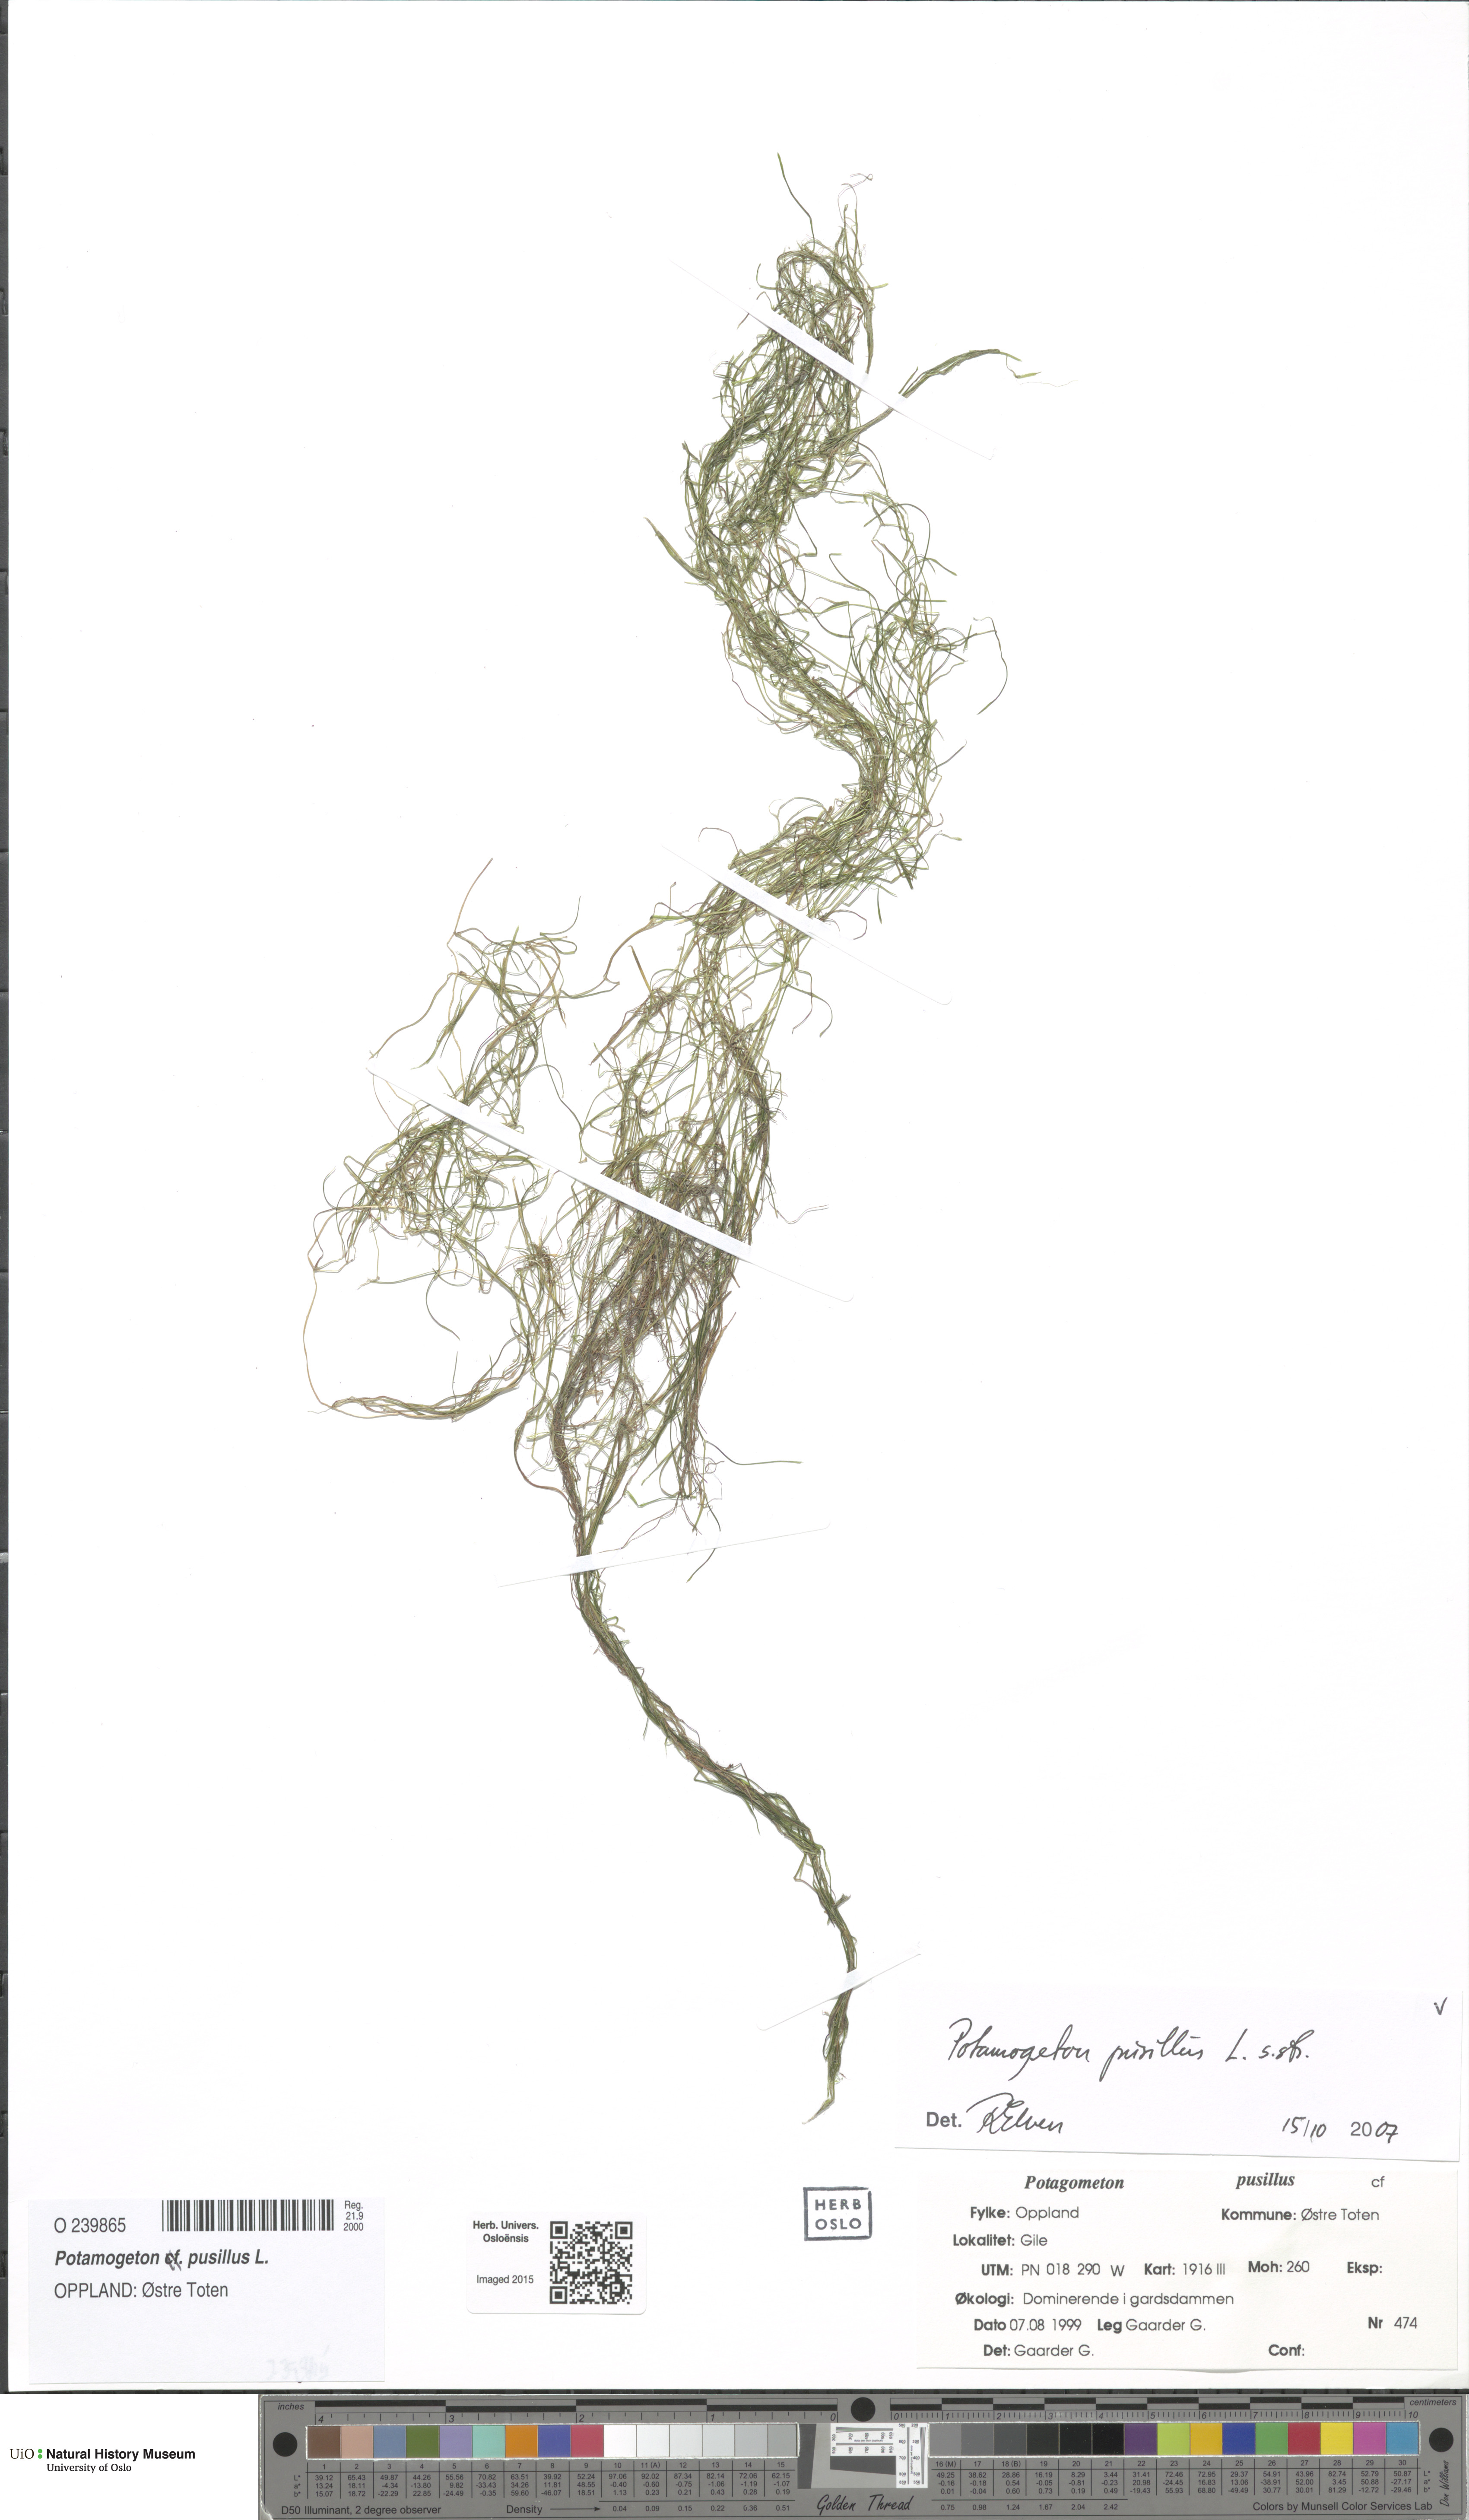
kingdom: Plantae
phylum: Tracheophyta
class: Liliopsida
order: Alismatales
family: Potamogetonaceae
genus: Potamogeton
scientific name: Potamogeton pusillus
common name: Lesser pondweed
